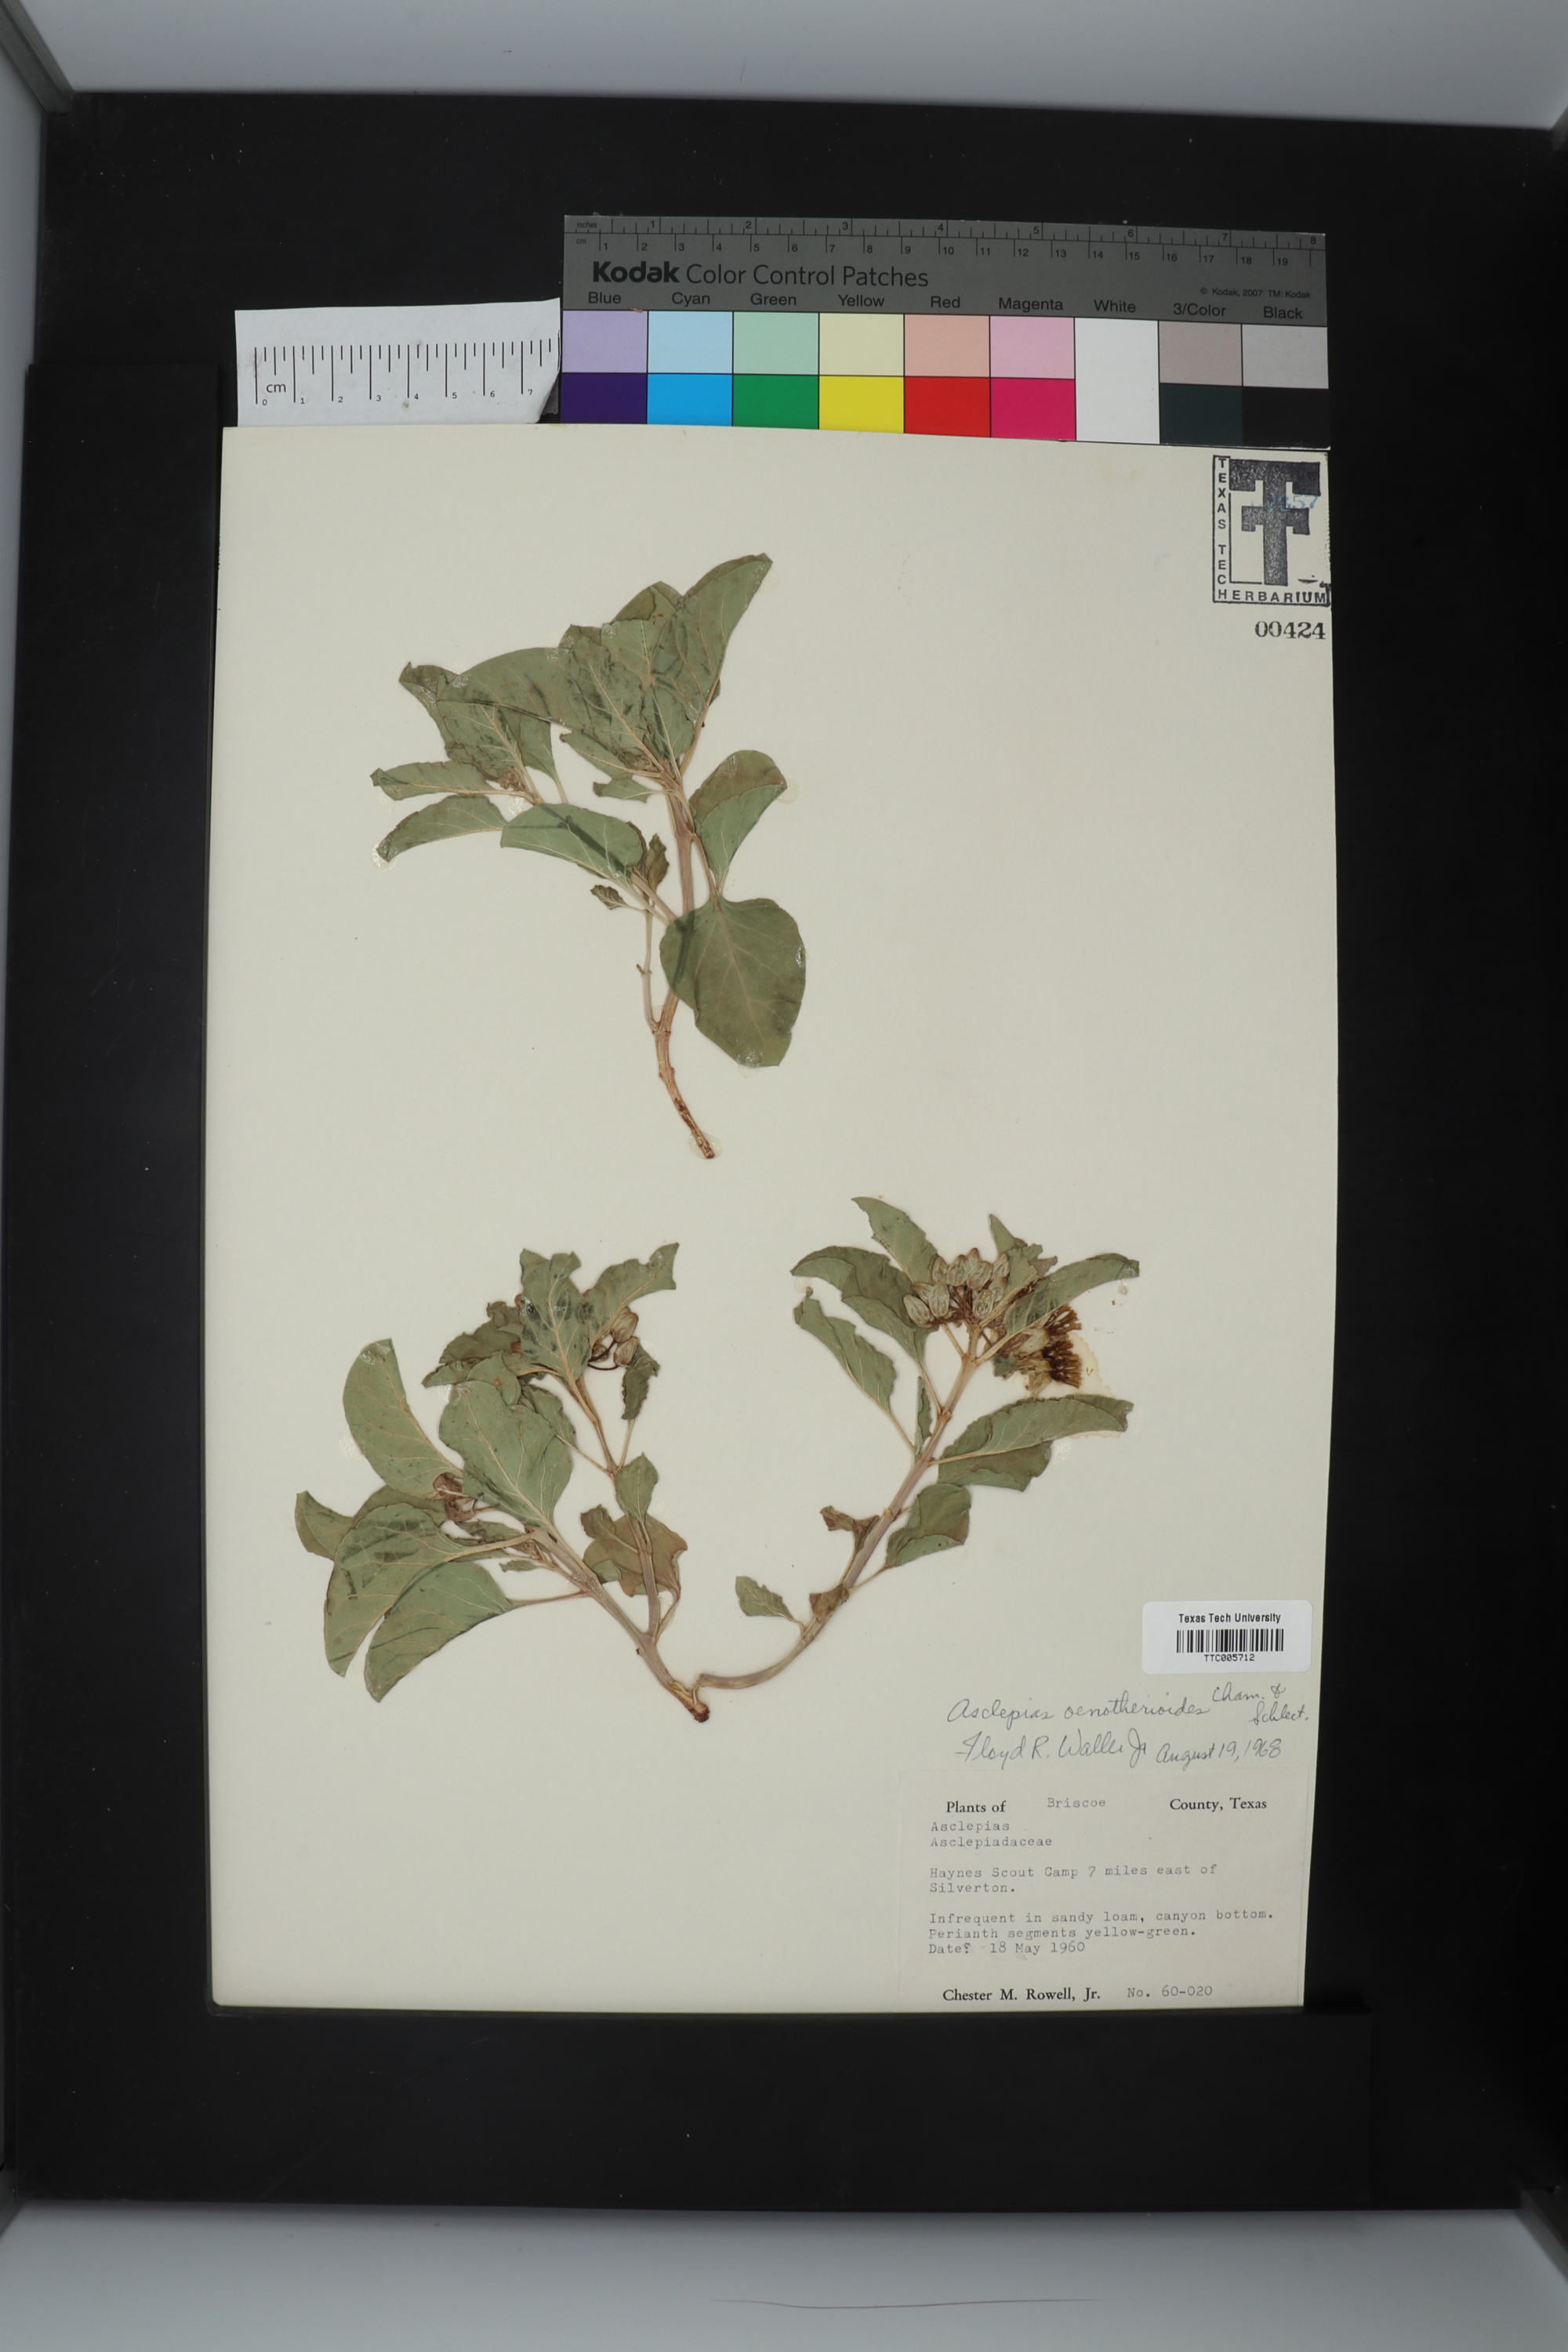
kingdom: Plantae
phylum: Tracheophyta
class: Magnoliopsida
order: Gentianales
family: Apocynaceae
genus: Asclepias
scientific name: Asclepias oenotheroides
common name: Zizotes milkweed
